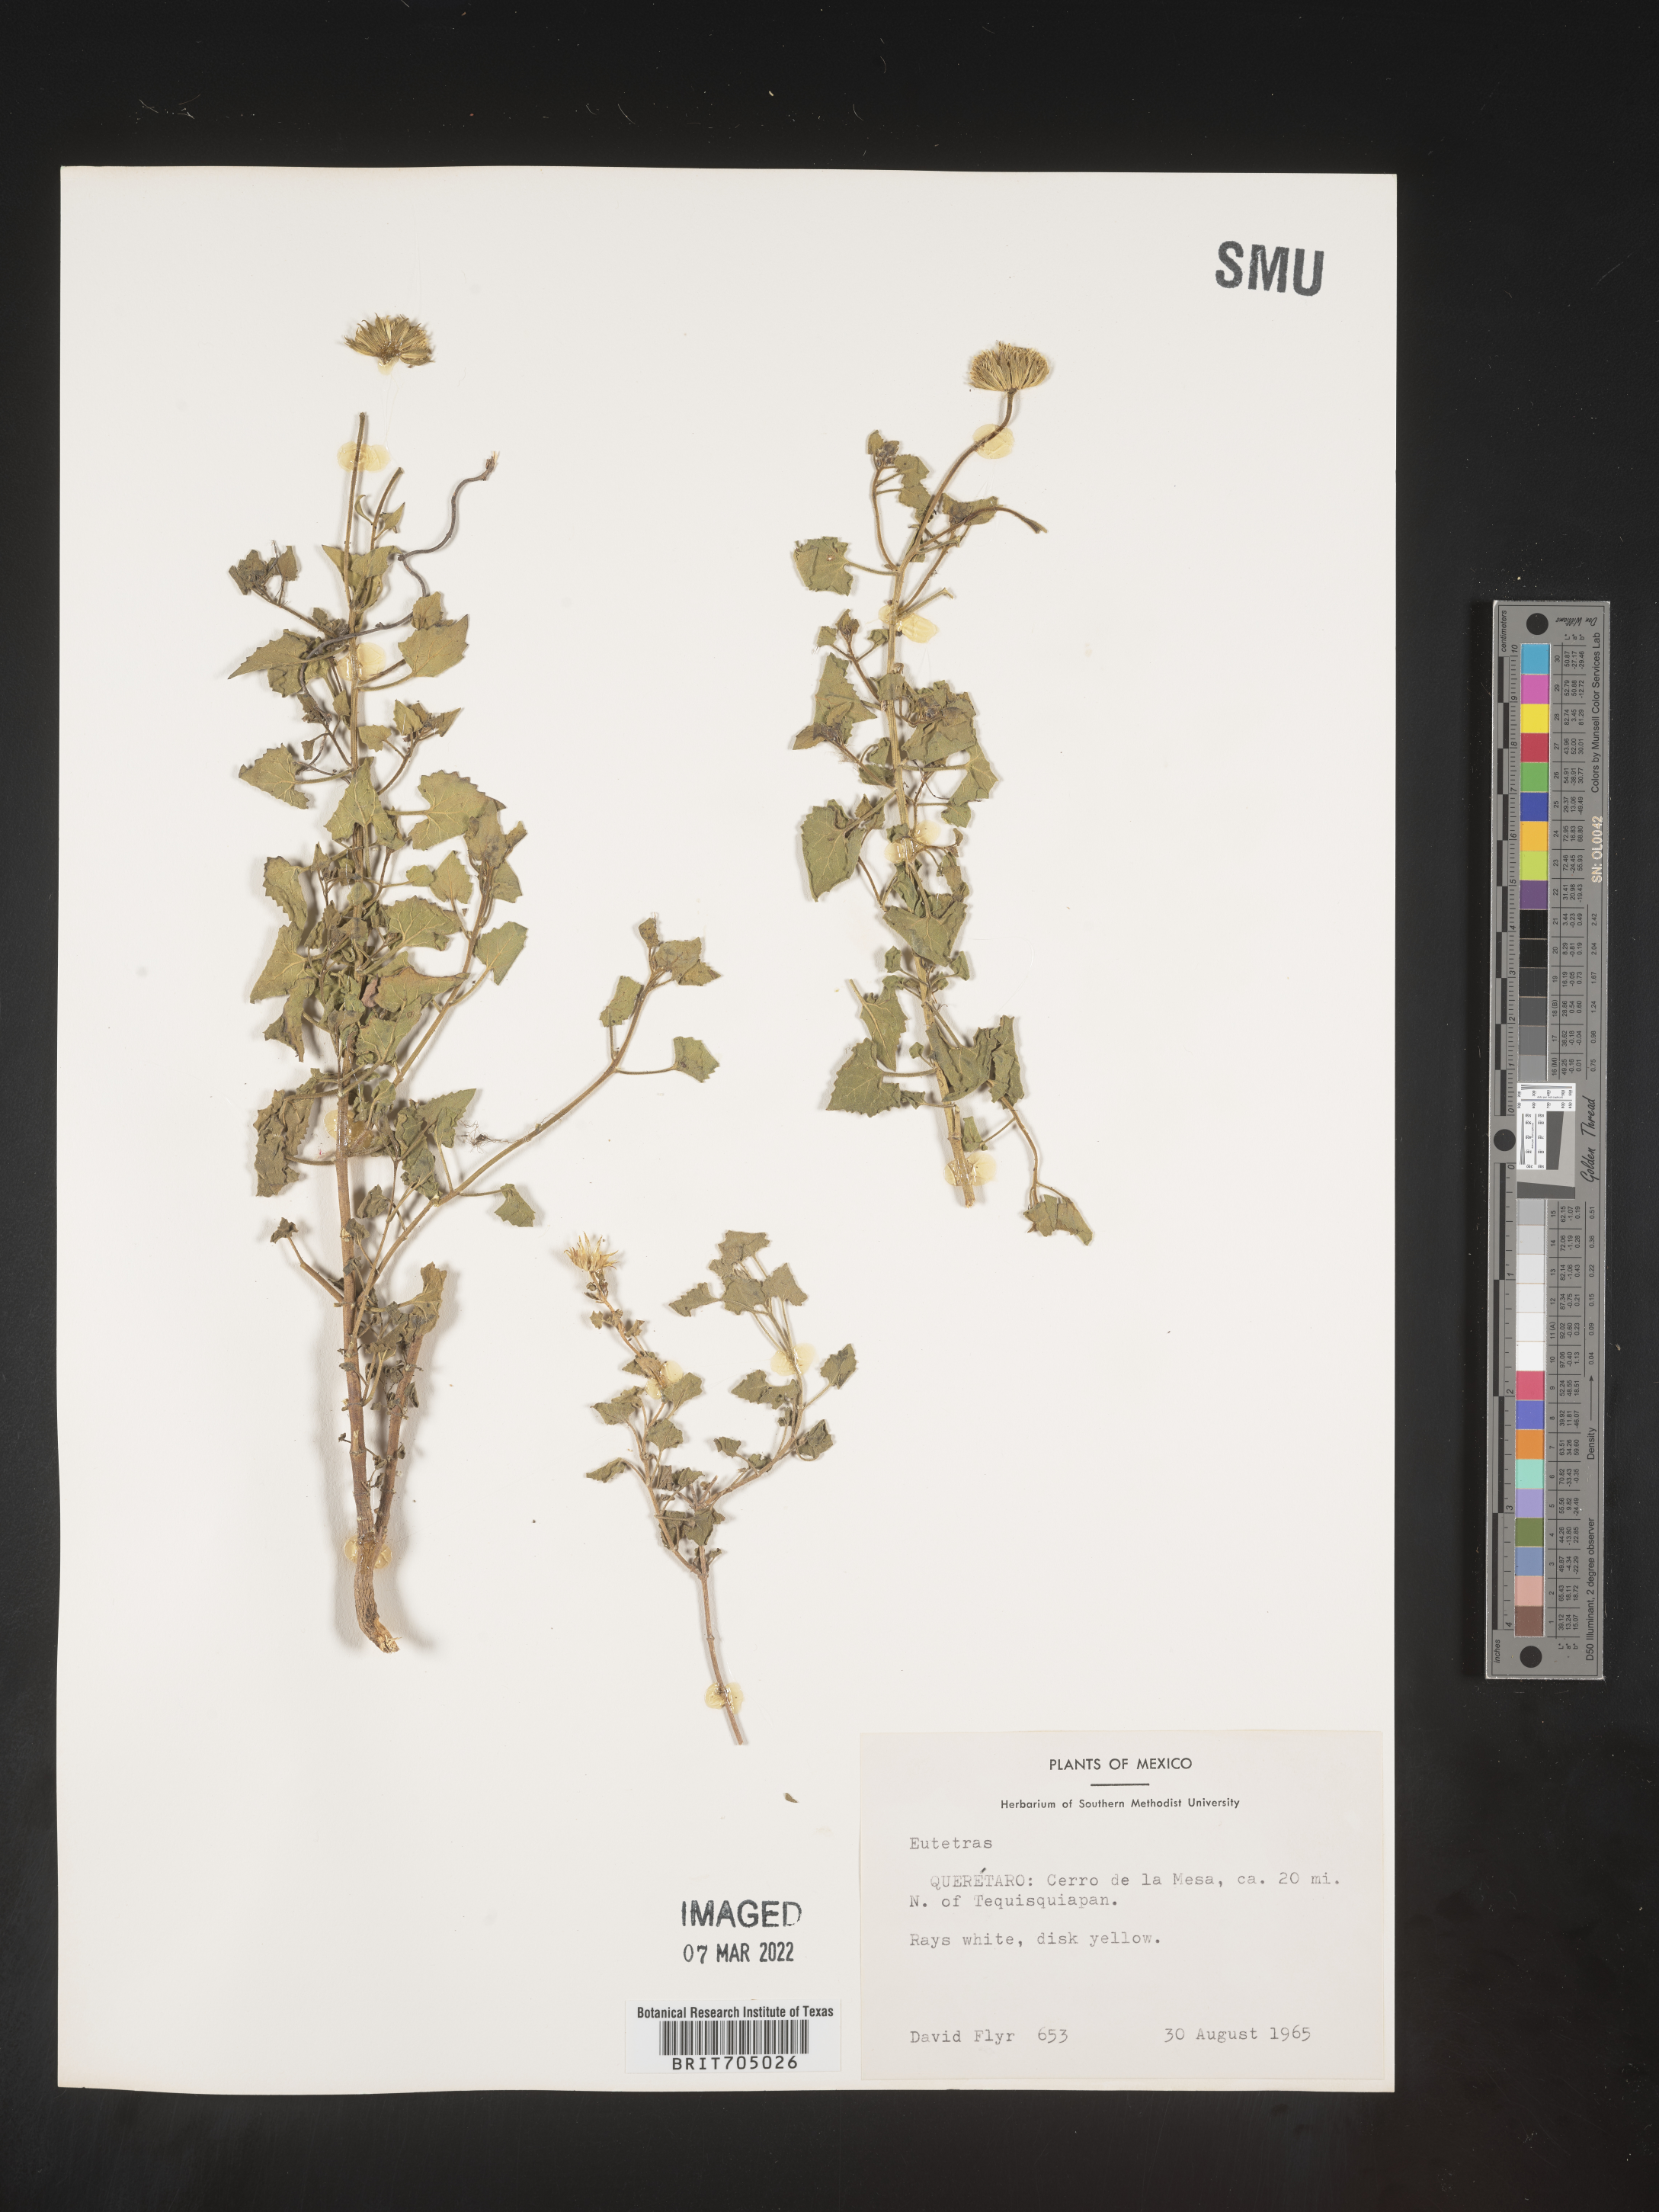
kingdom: Plantae
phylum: Tracheophyta
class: Magnoliopsida
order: Asterales
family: Asteraceae
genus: Eutetras
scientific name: Eutetras
